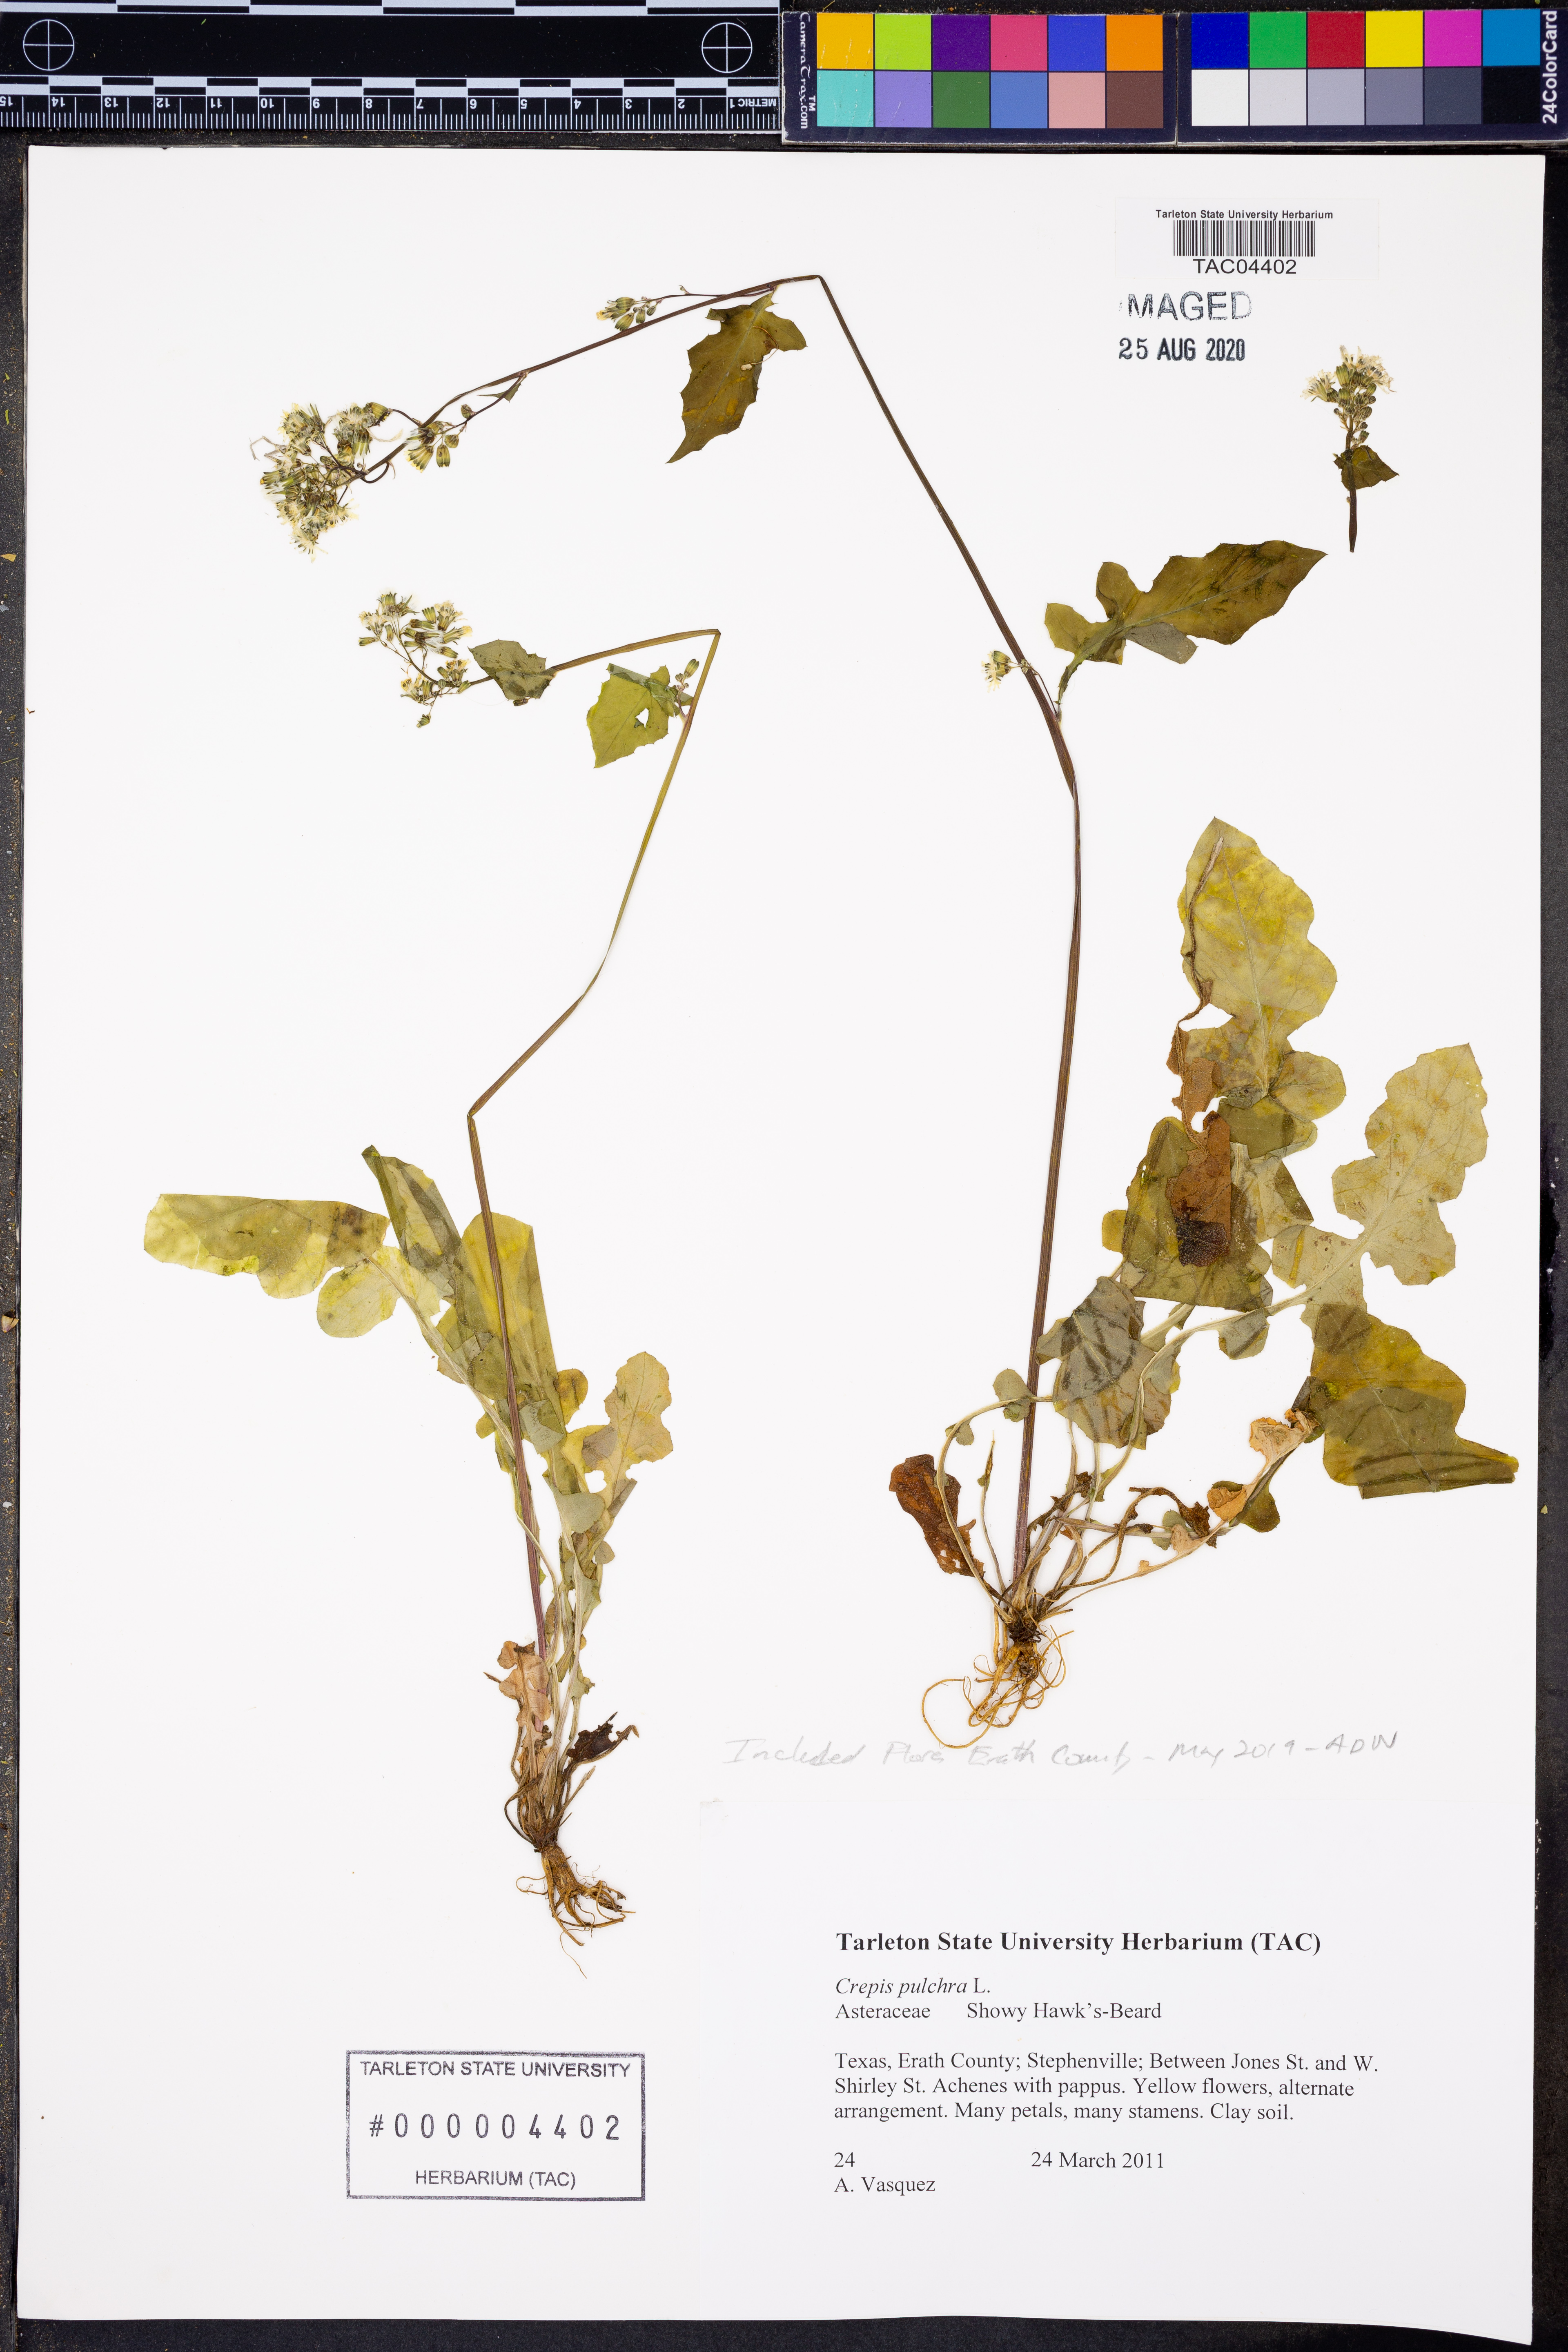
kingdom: Plantae
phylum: Tracheophyta
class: Magnoliopsida
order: Asterales
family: Asteraceae
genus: Crepis
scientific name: Crepis pulchra
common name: Hawk's-beard
